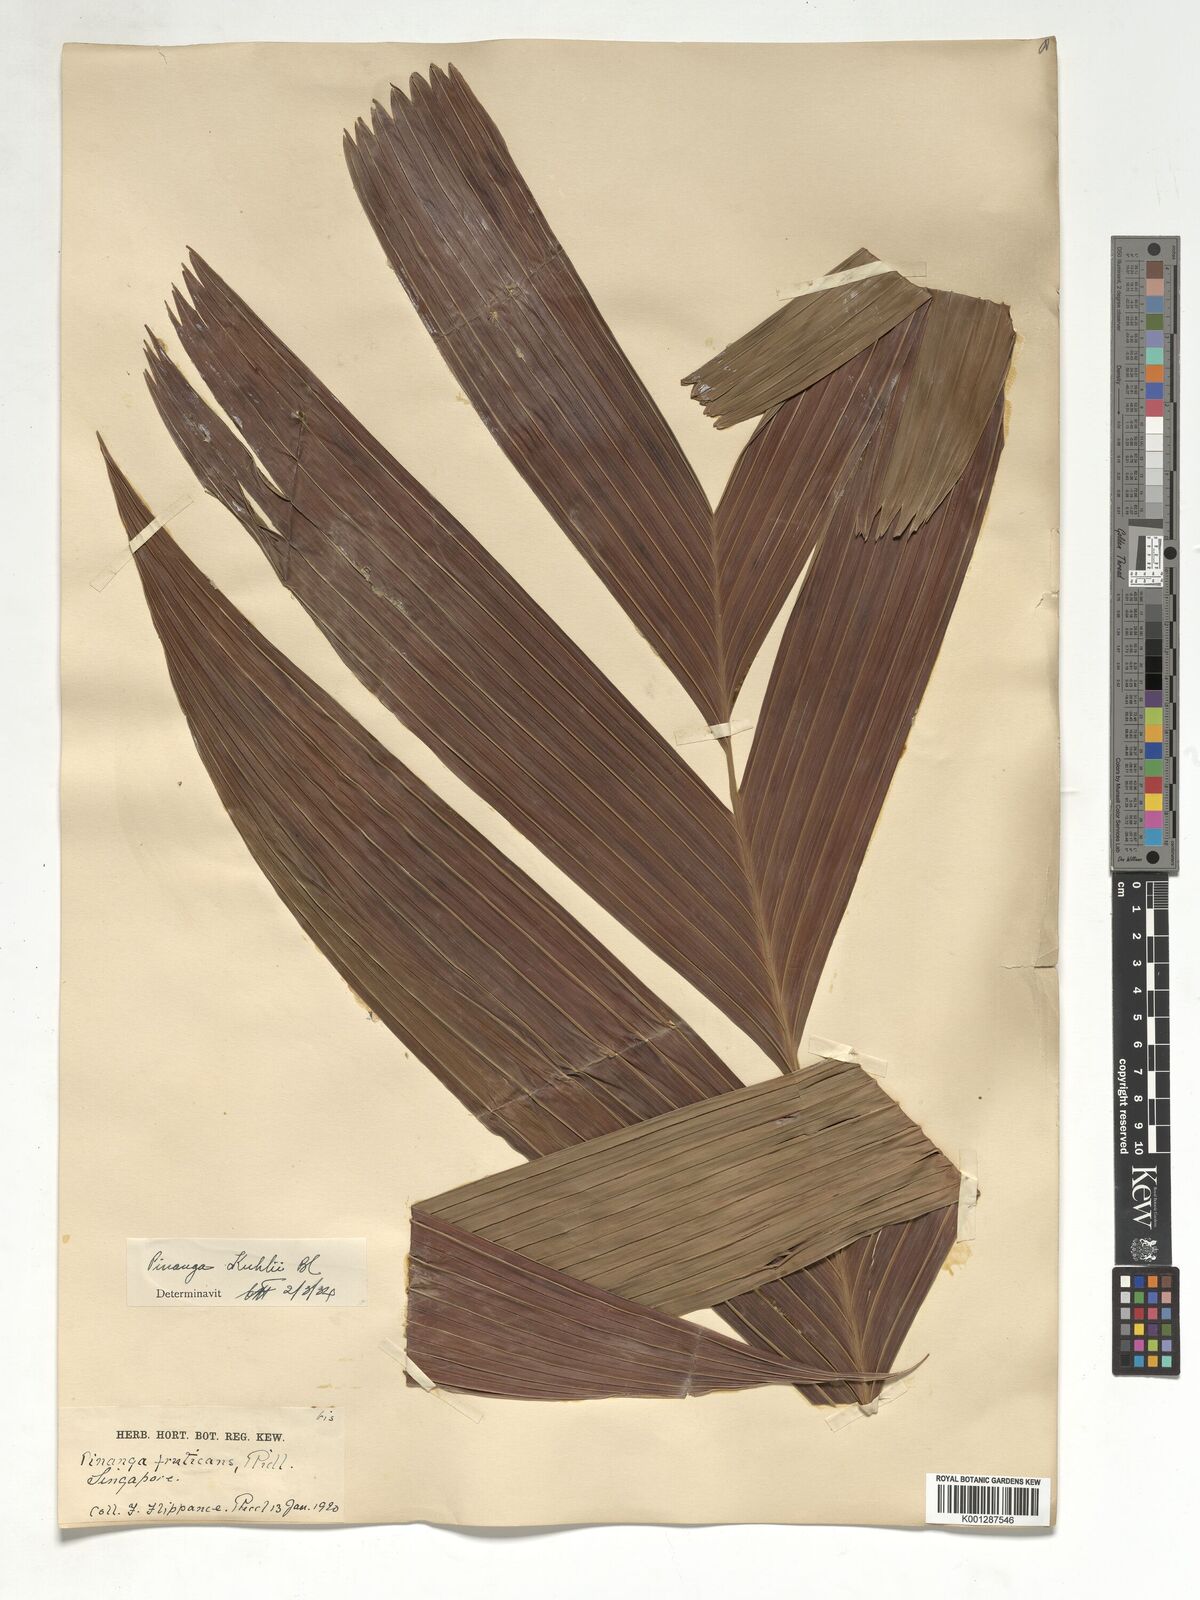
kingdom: Plantae
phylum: Tracheophyta
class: Liliopsida
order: Arecales
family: Arecaceae
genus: Pinanga
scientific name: Pinanga coronata
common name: Ivory cane palm
